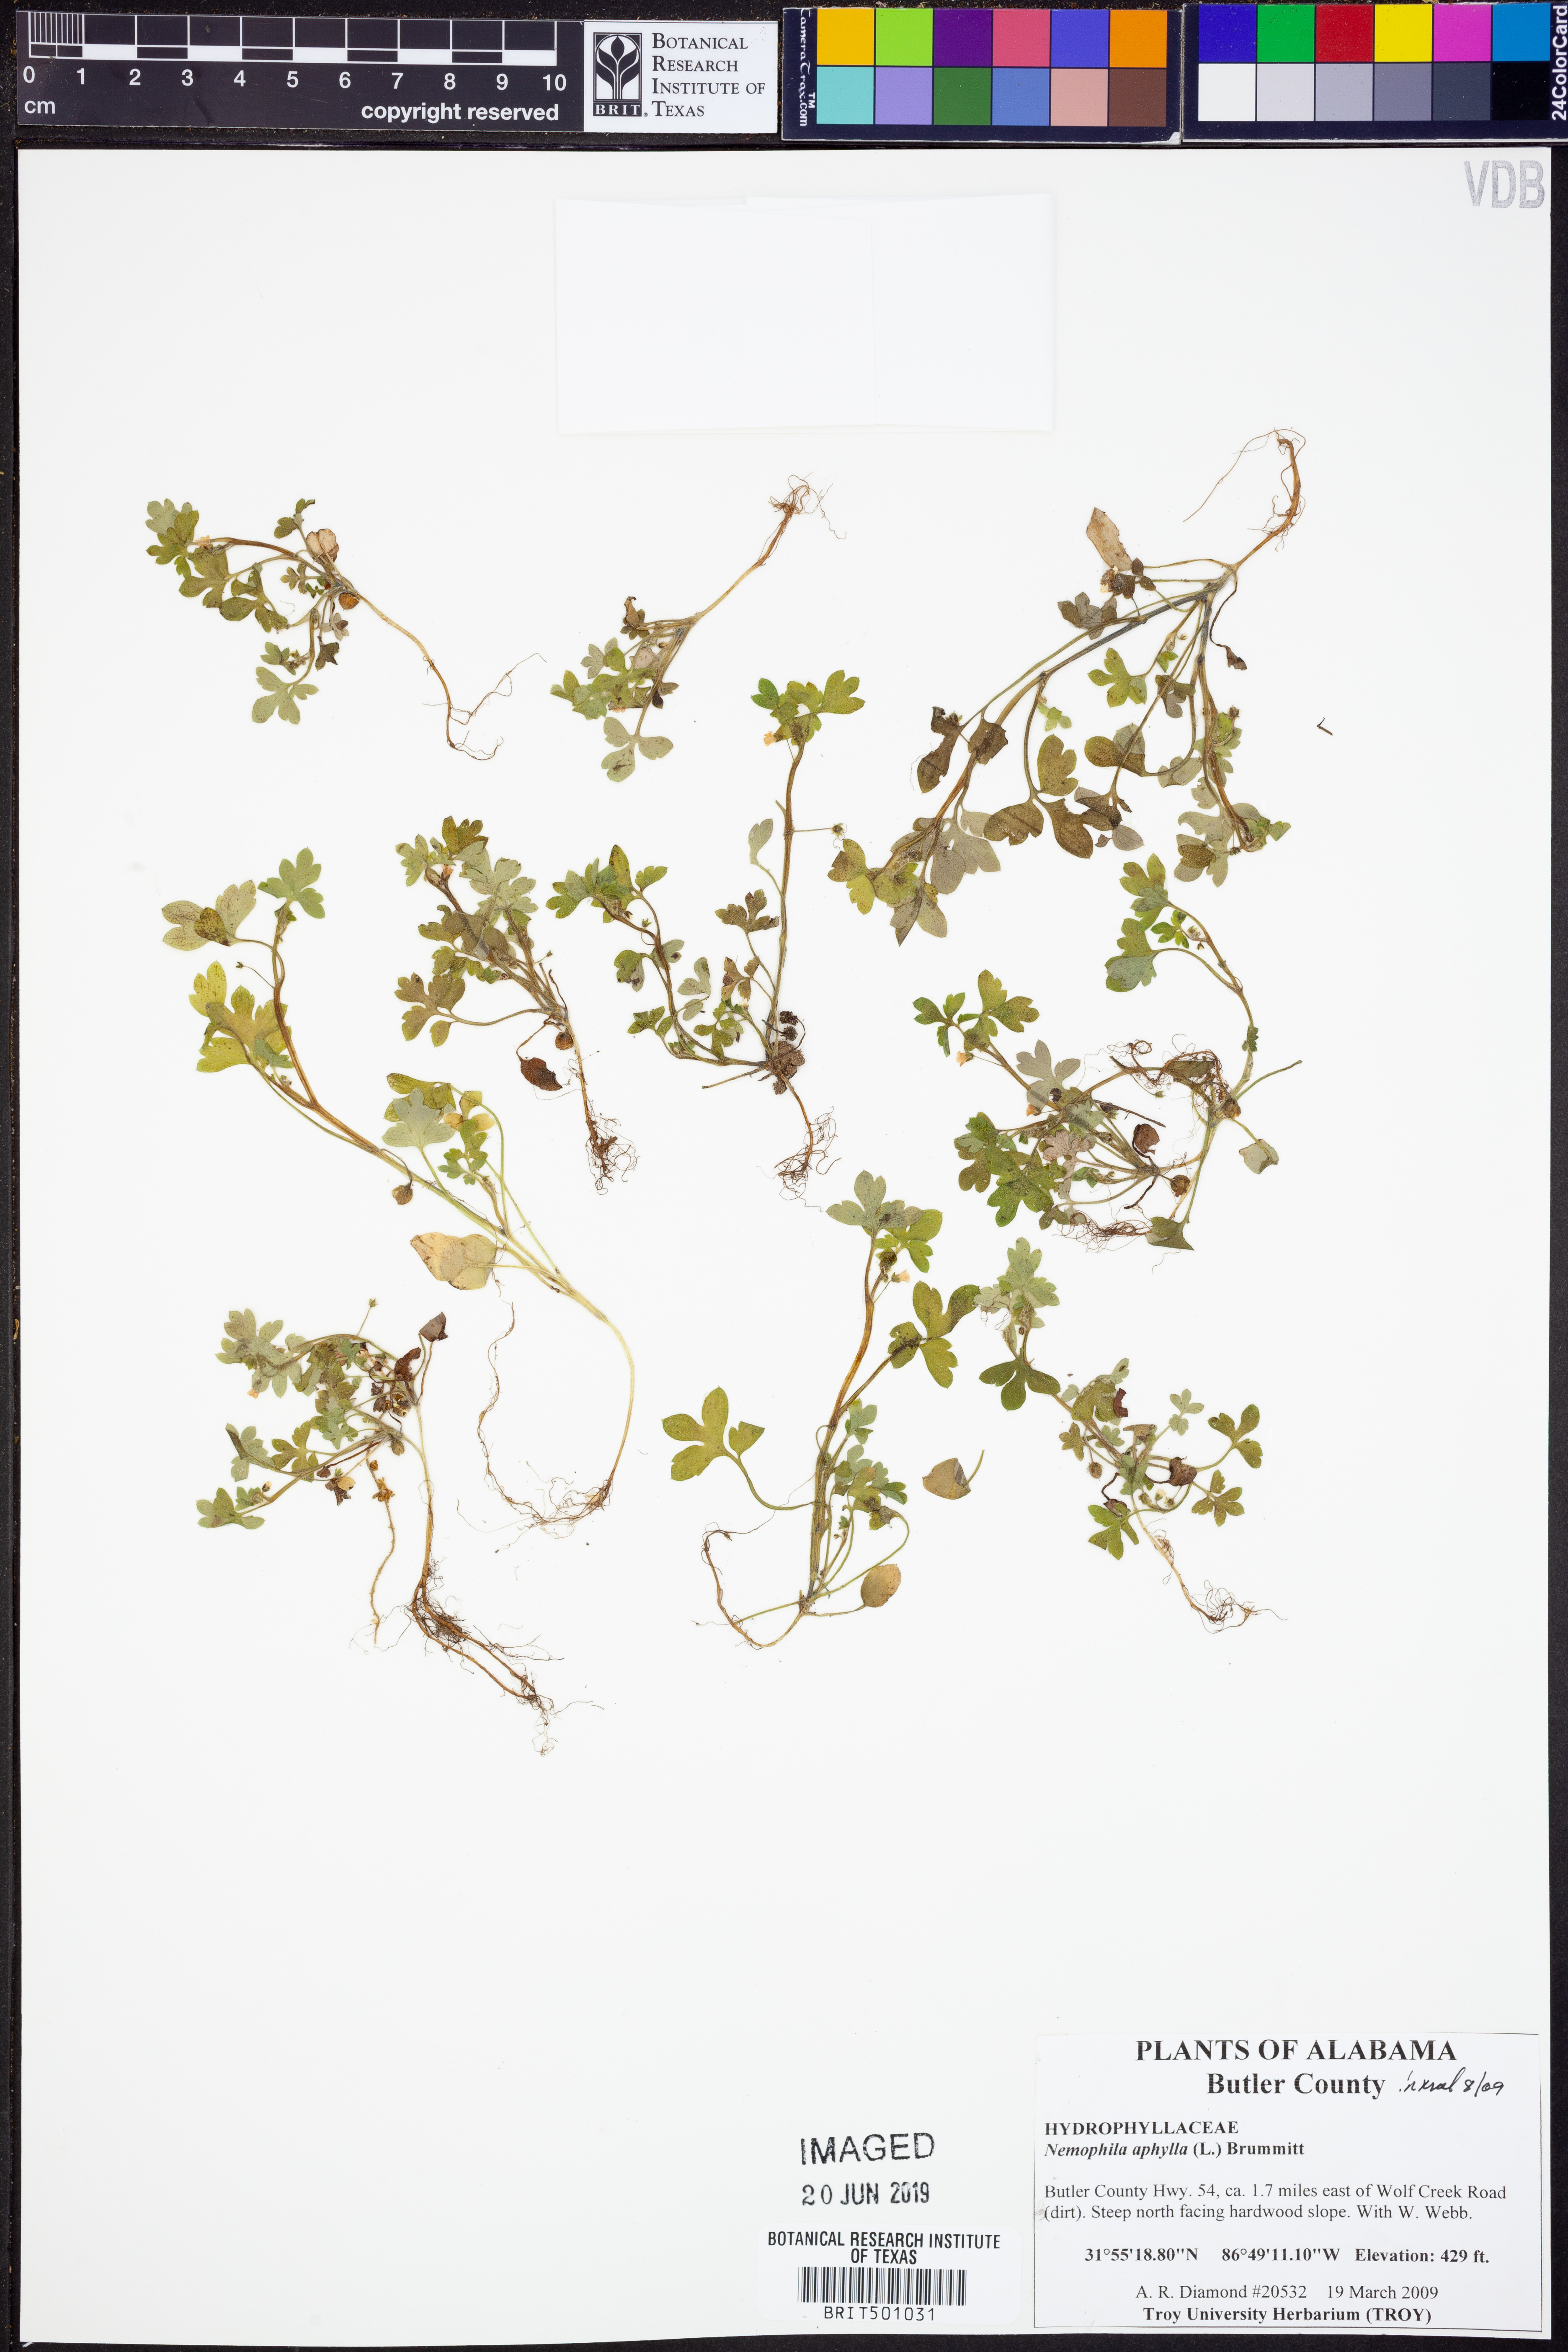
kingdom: Plantae
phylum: Tracheophyta
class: Magnoliopsida
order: Boraginales
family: Hydrophyllaceae
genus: Nemophila
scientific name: Nemophila aphylla
